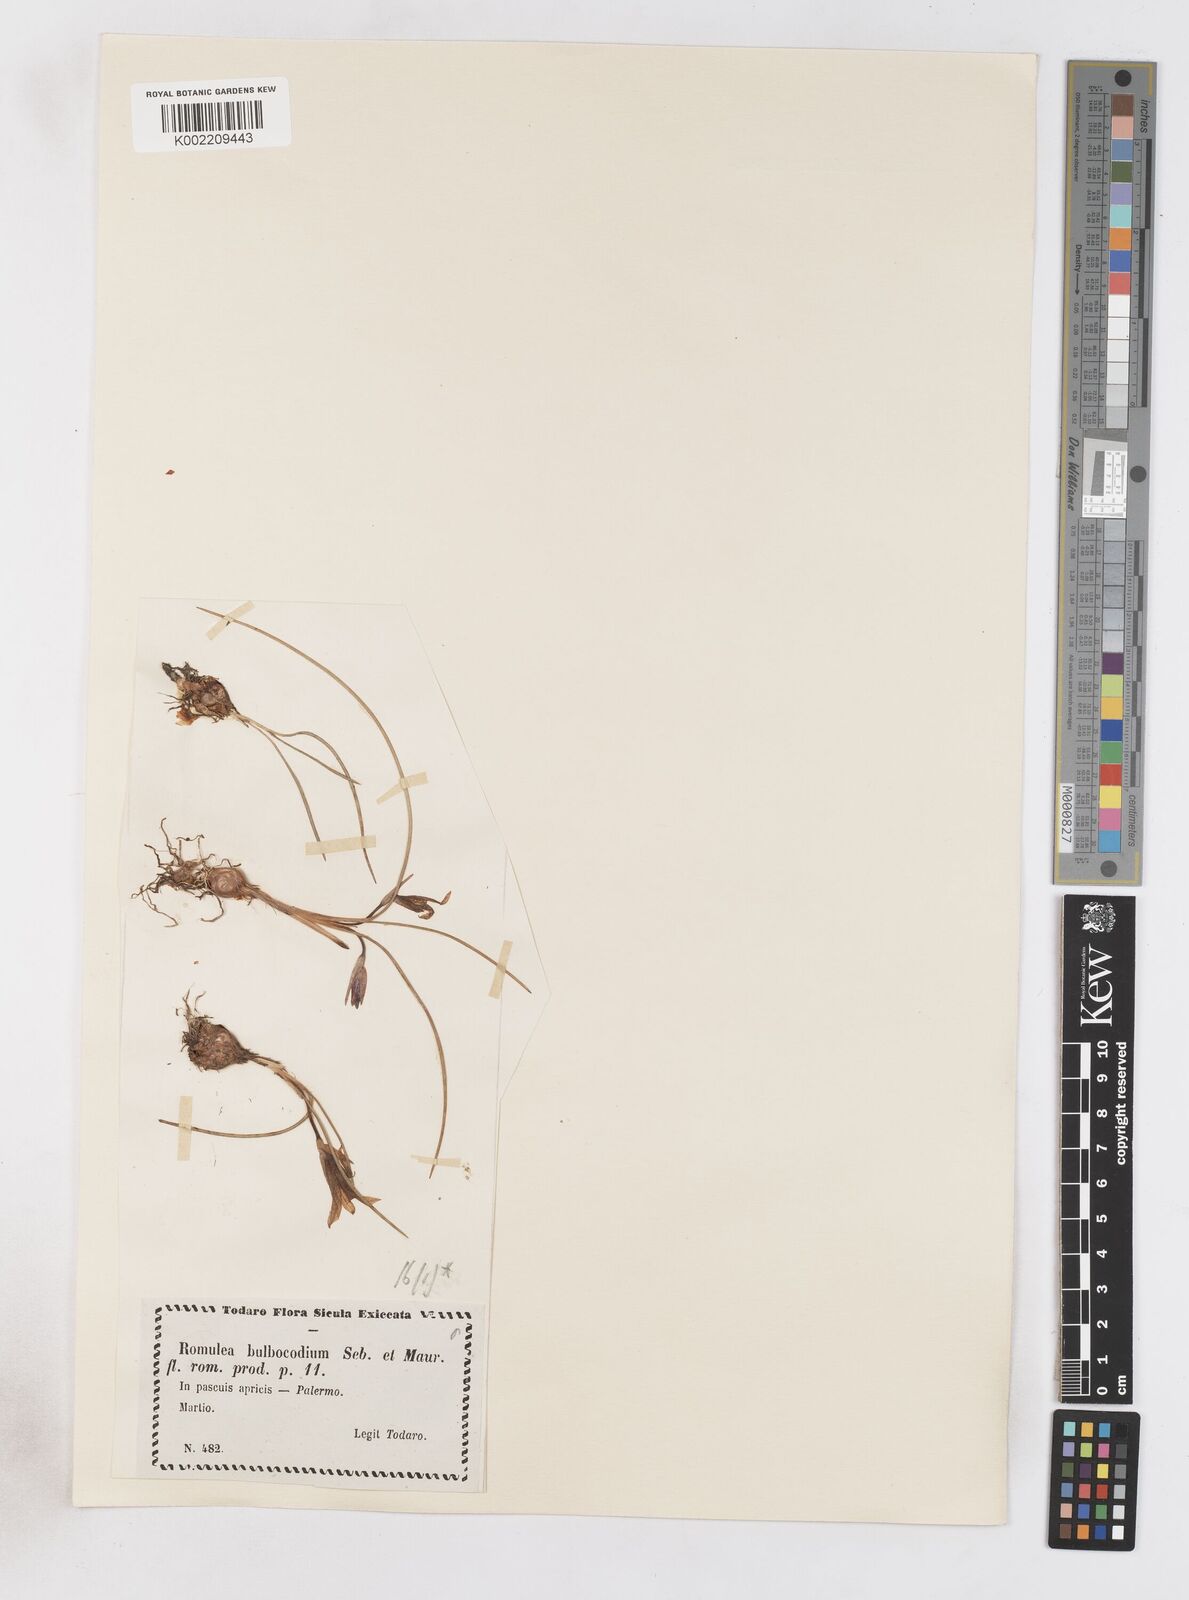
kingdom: Plantae
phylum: Tracheophyta
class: Liliopsida
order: Asparagales
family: Iridaceae
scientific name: Iridaceae
